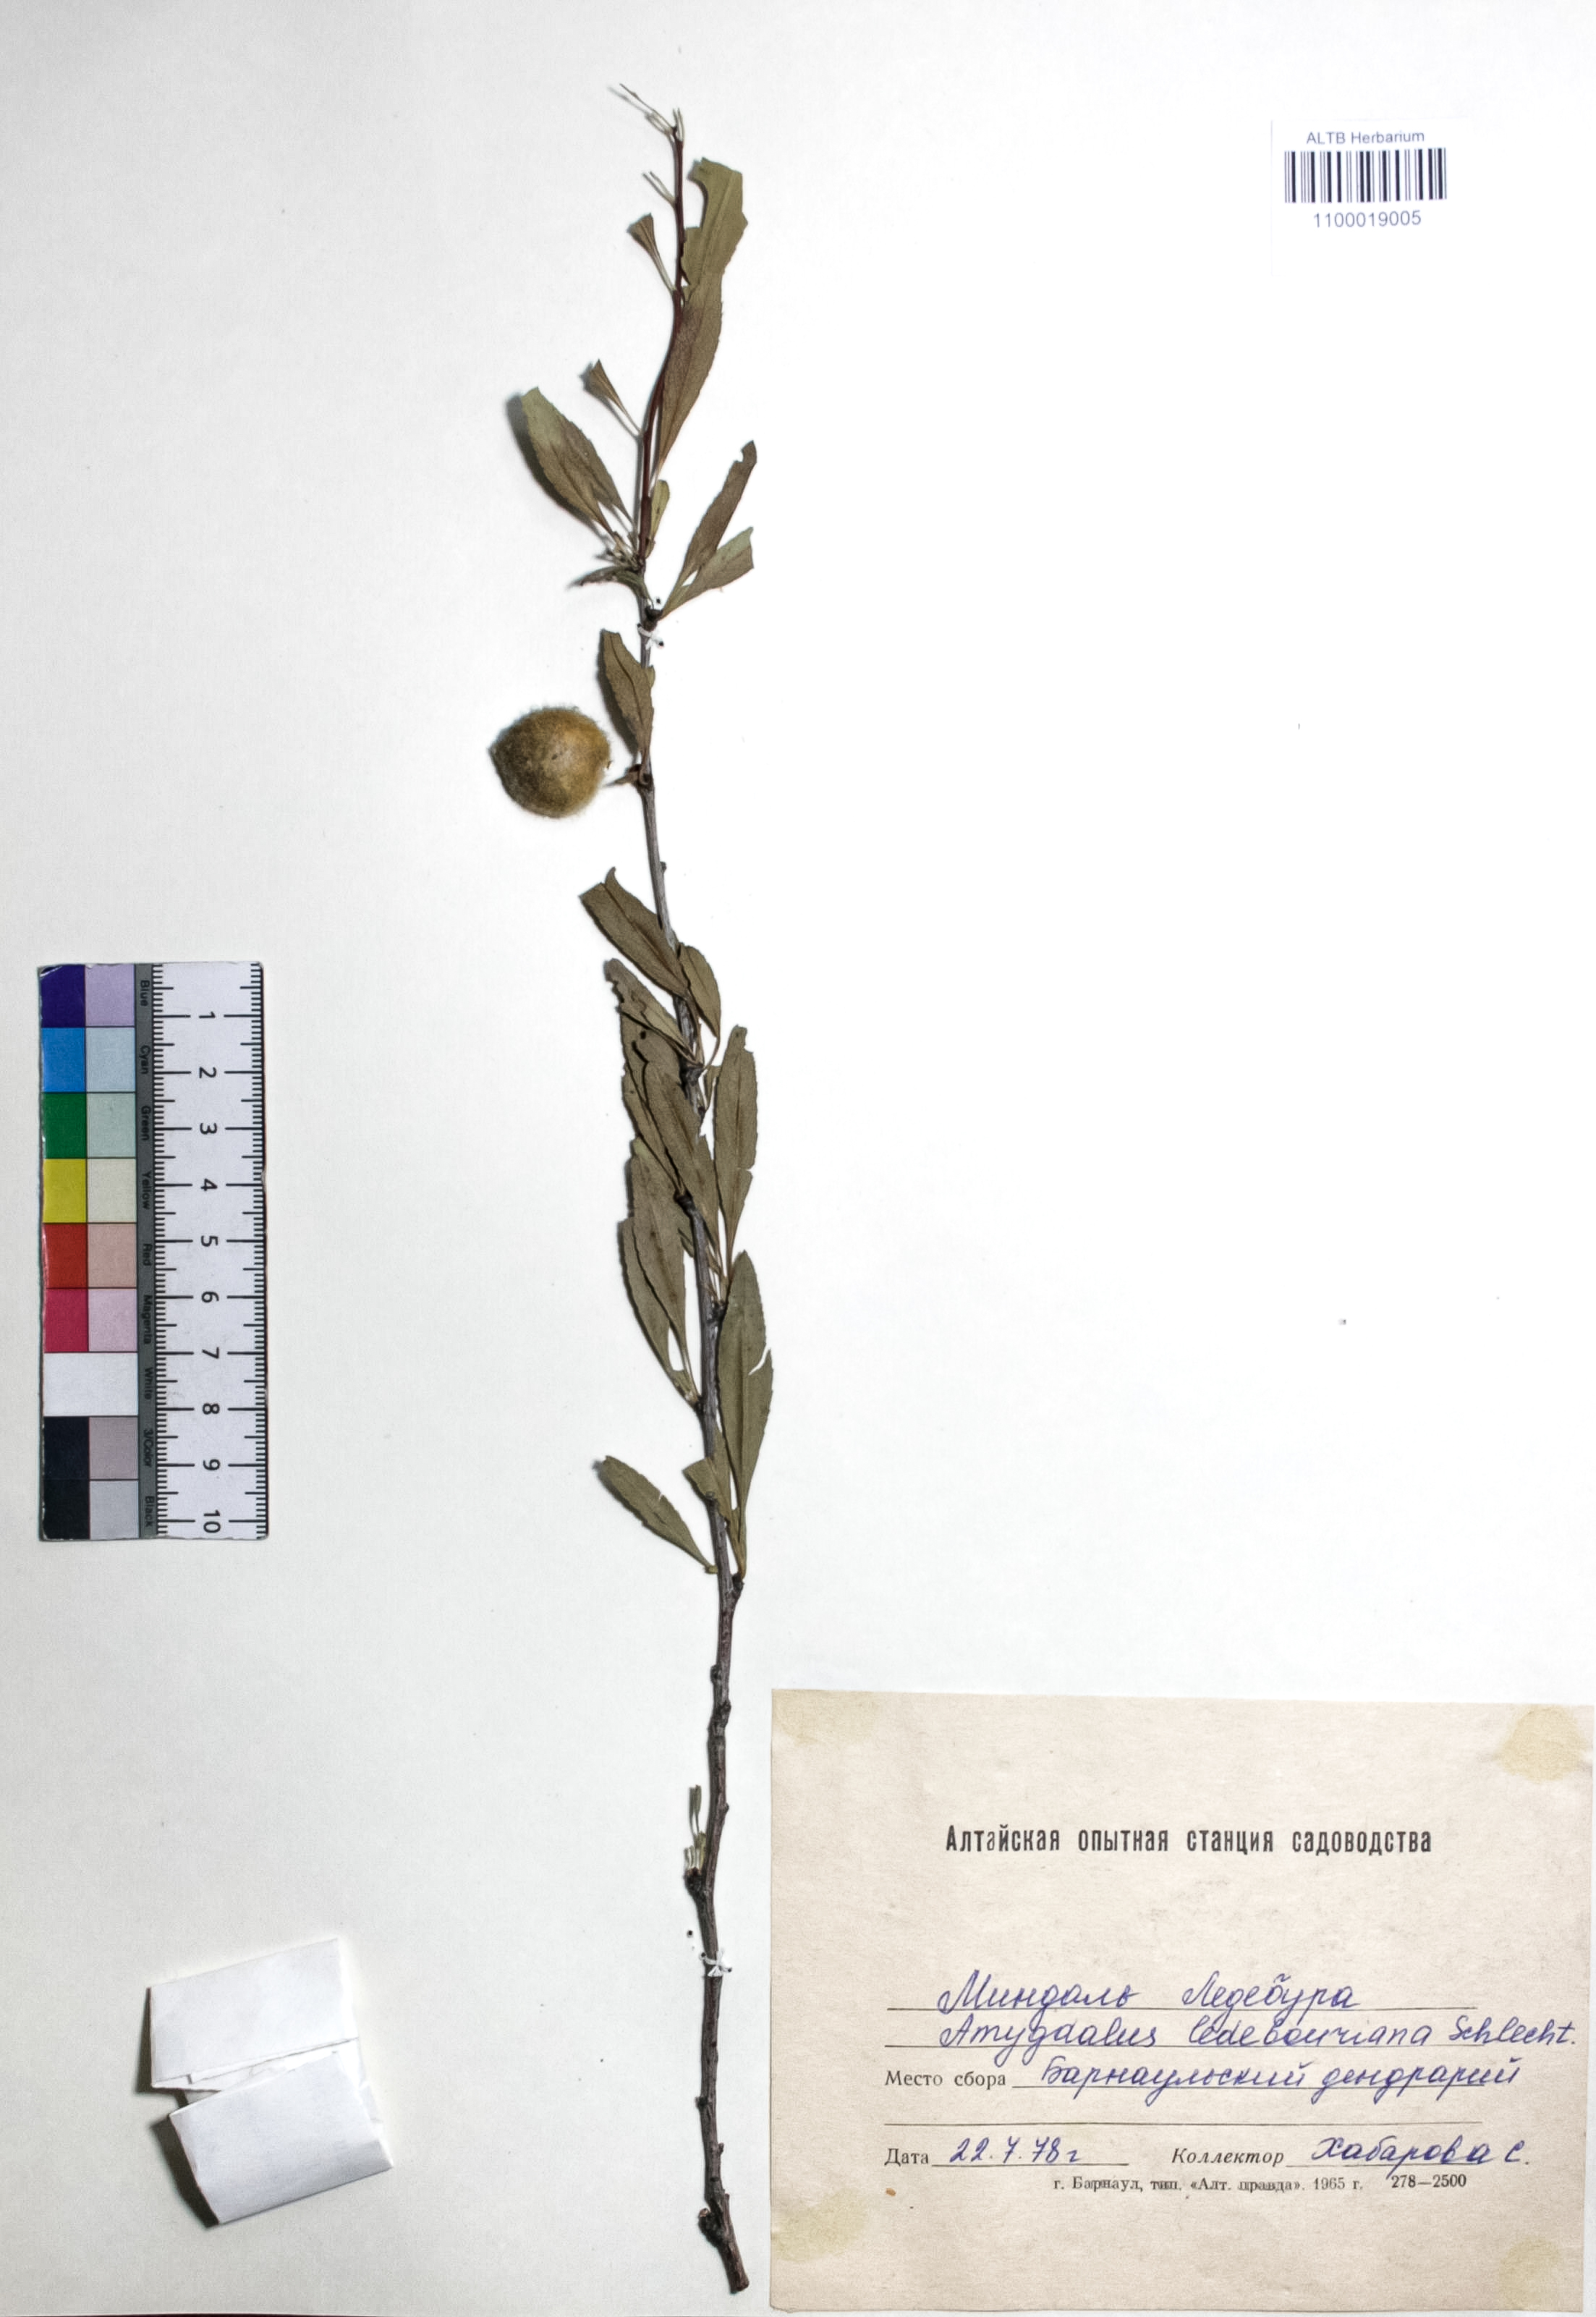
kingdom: Plantae
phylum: Tracheophyta
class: Magnoliopsida
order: Rosales
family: Rosaceae
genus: Prunus
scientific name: Prunus ledebouriana
